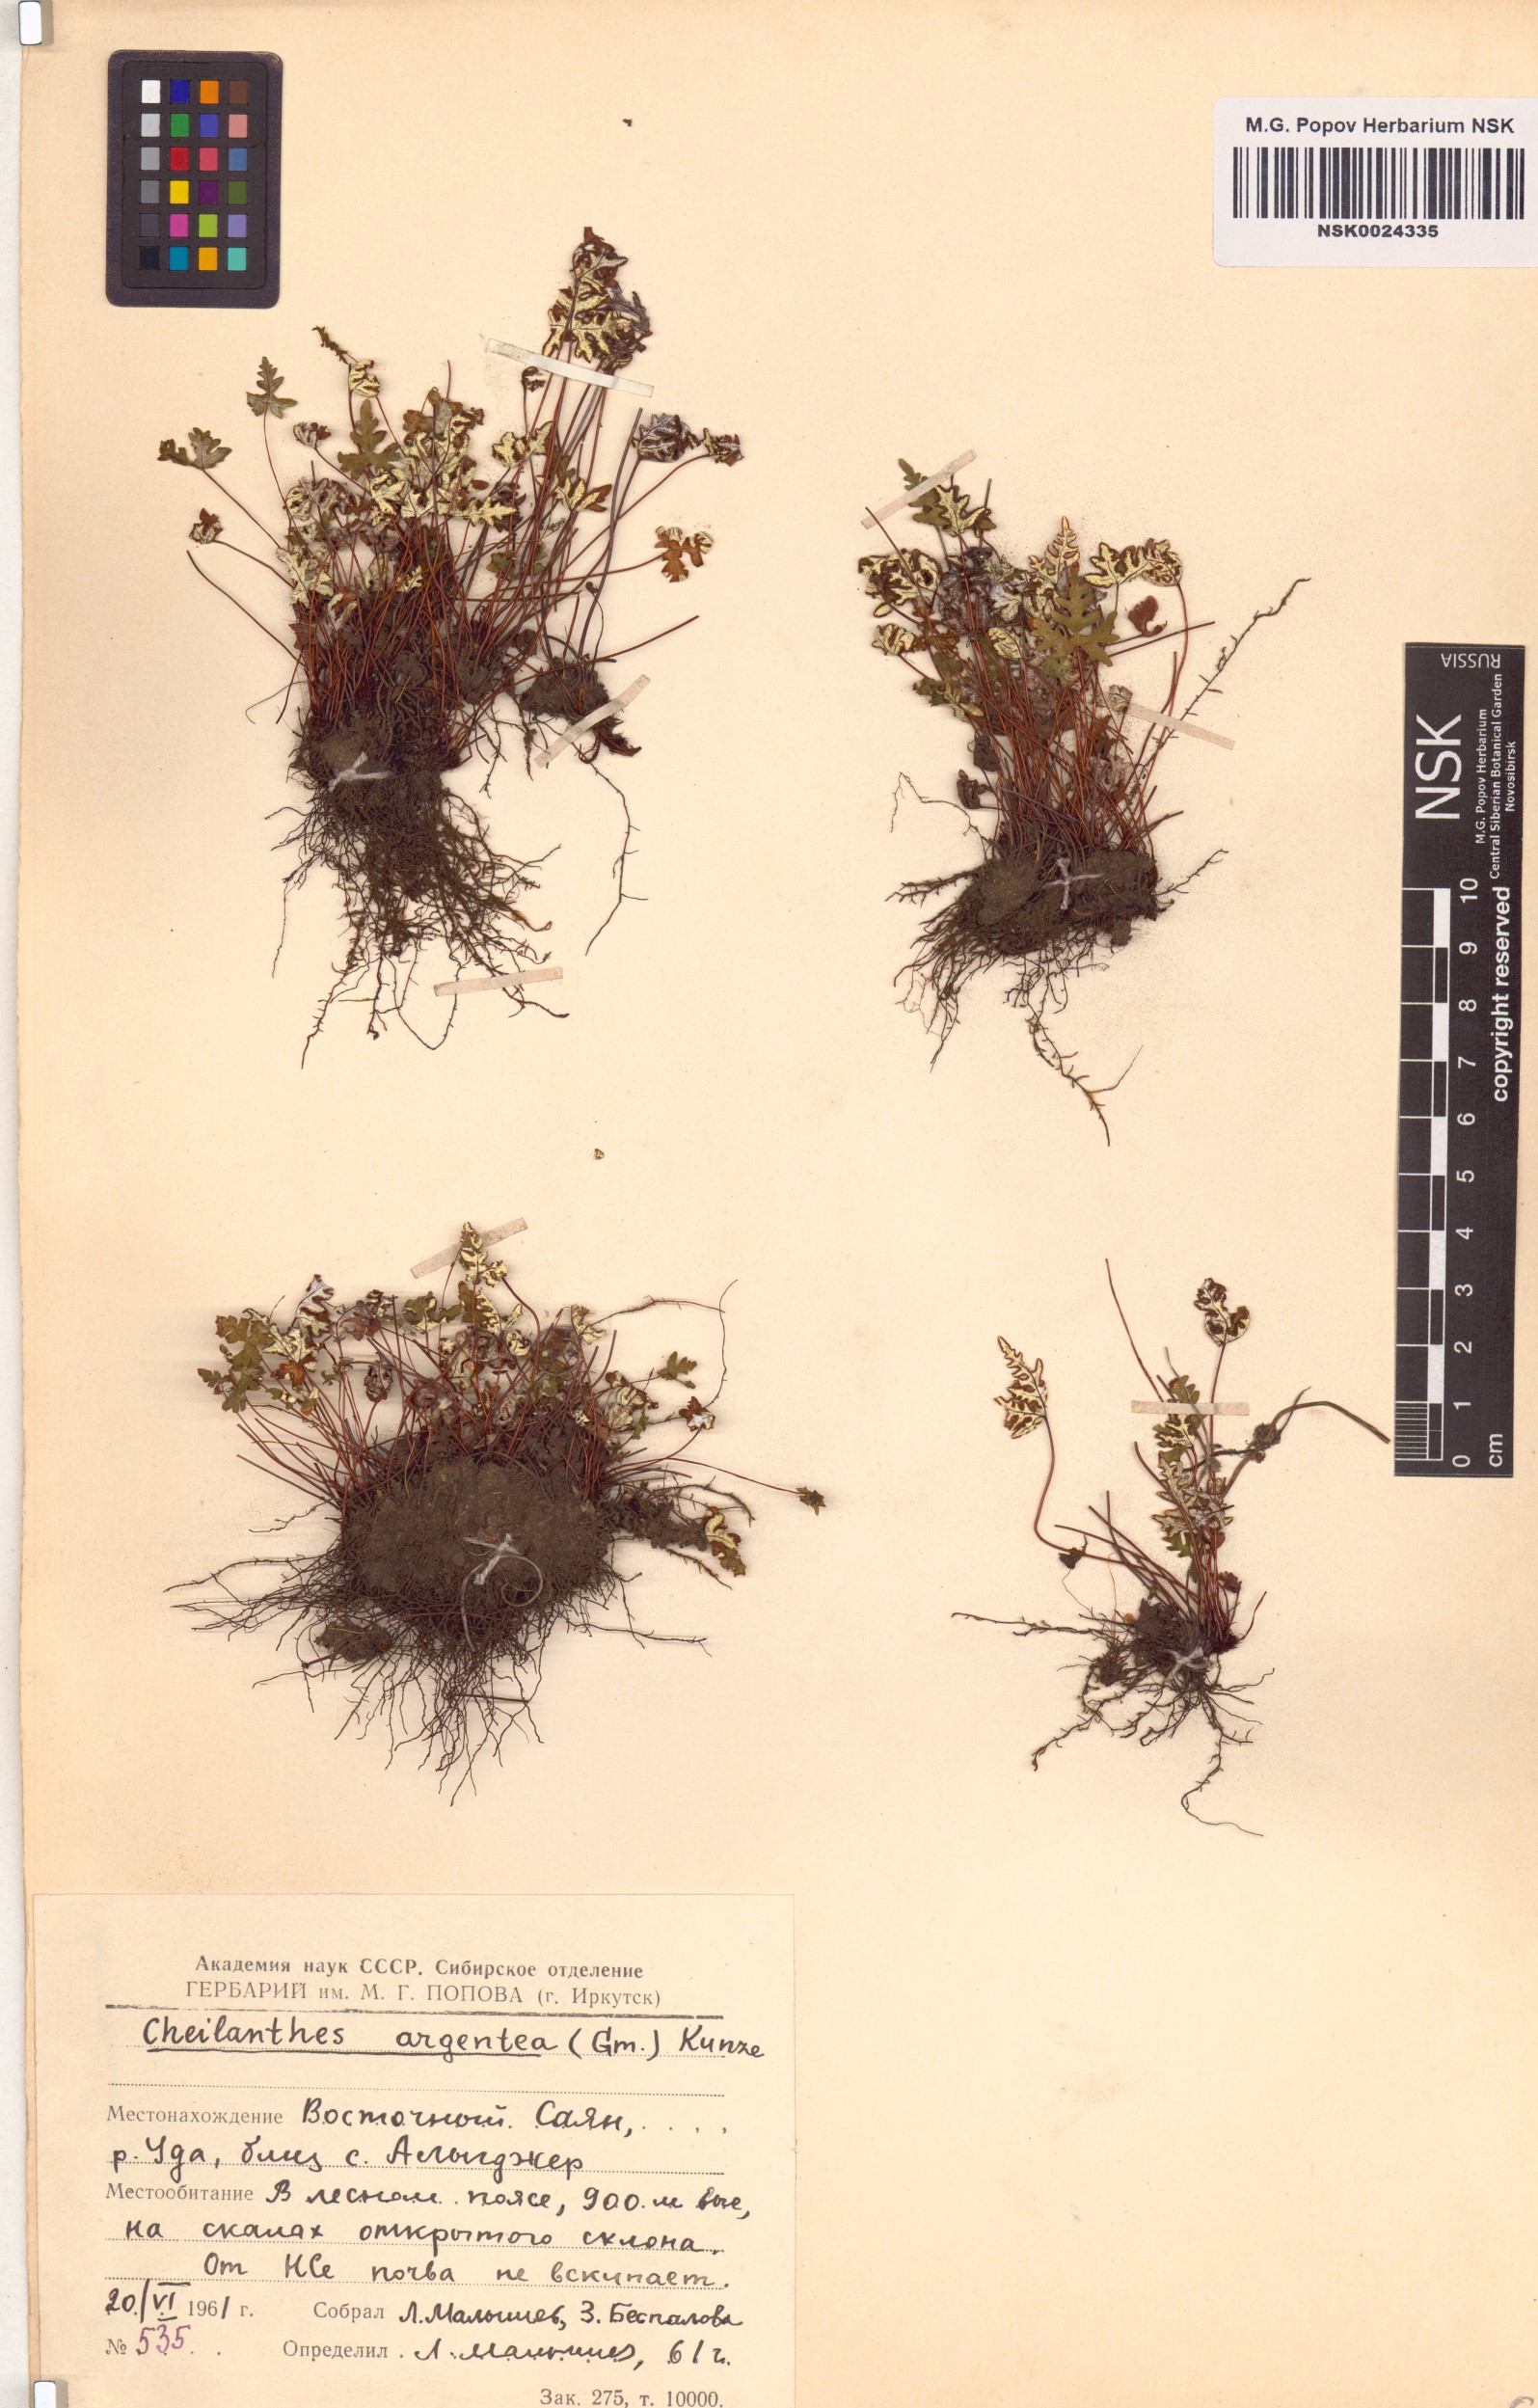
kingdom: Plantae
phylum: Tracheophyta
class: Polypodiopsida
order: Polypodiales
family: Pteridaceae
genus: Aleuritopteris
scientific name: Aleuritopteris argentea
